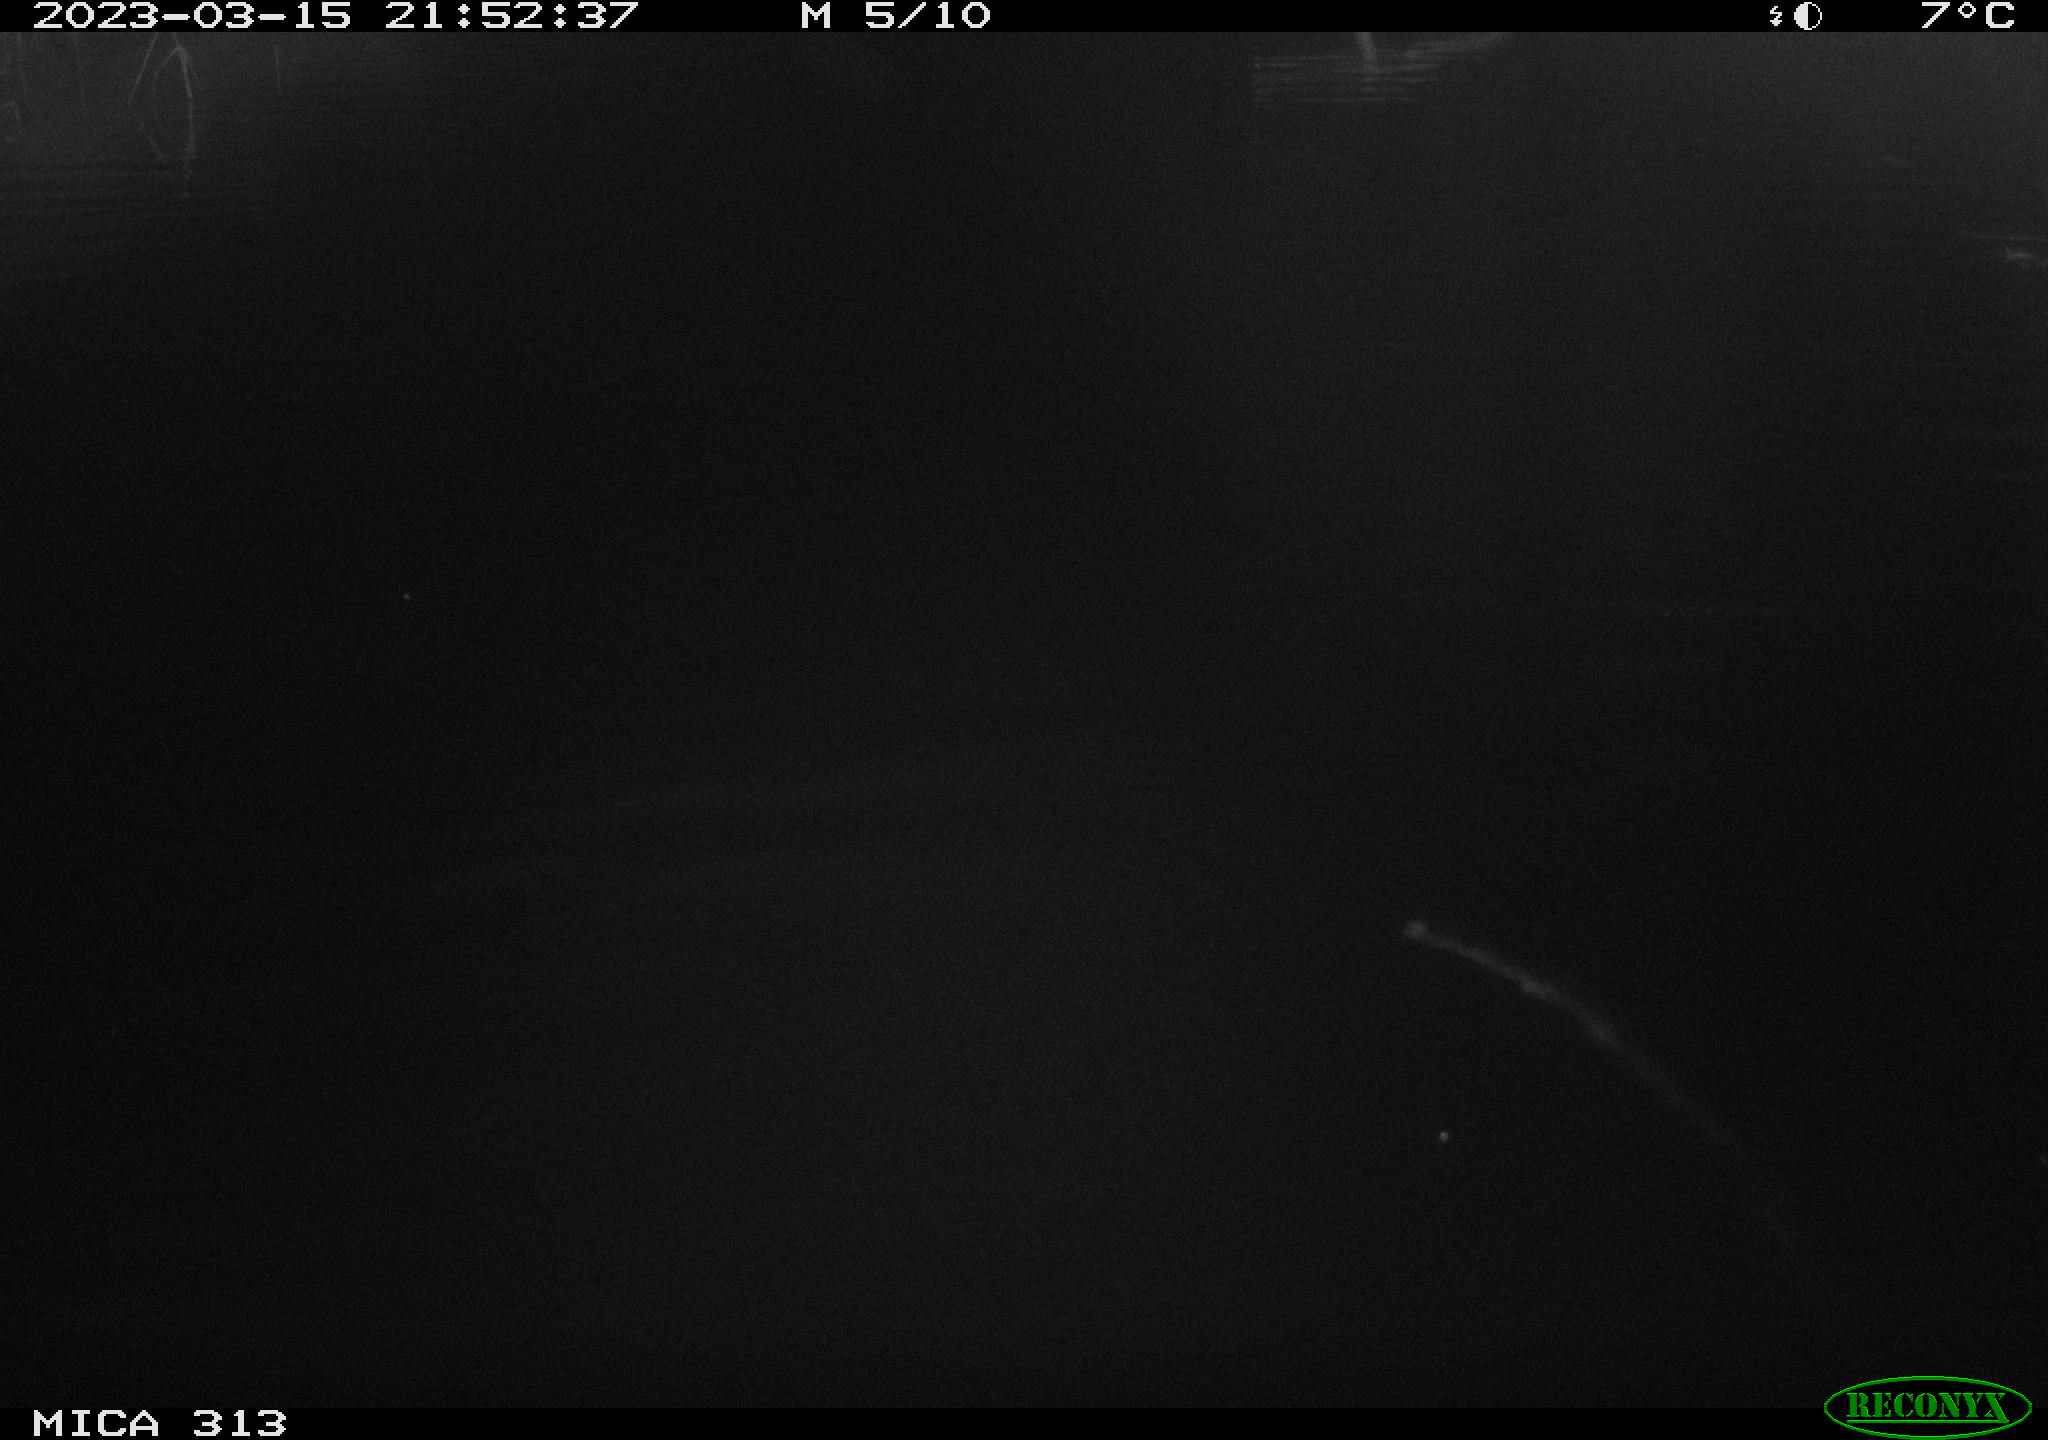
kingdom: Animalia
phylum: Chordata
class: Aves
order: Anseriformes
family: Anatidae
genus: Anas
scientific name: Anas
